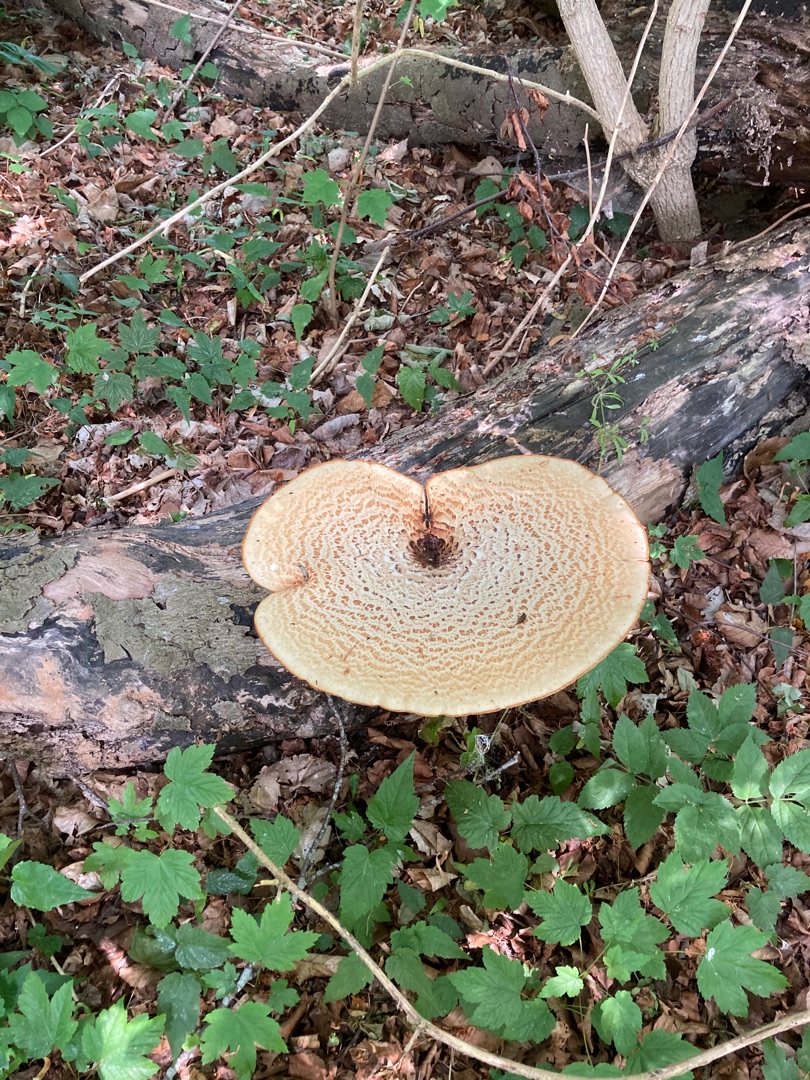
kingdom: Fungi
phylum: Basidiomycota
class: Agaricomycetes
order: Polyporales
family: Polyporaceae
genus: Cerioporus
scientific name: Cerioporus squamosus
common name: Skællet stilkporesvamp
